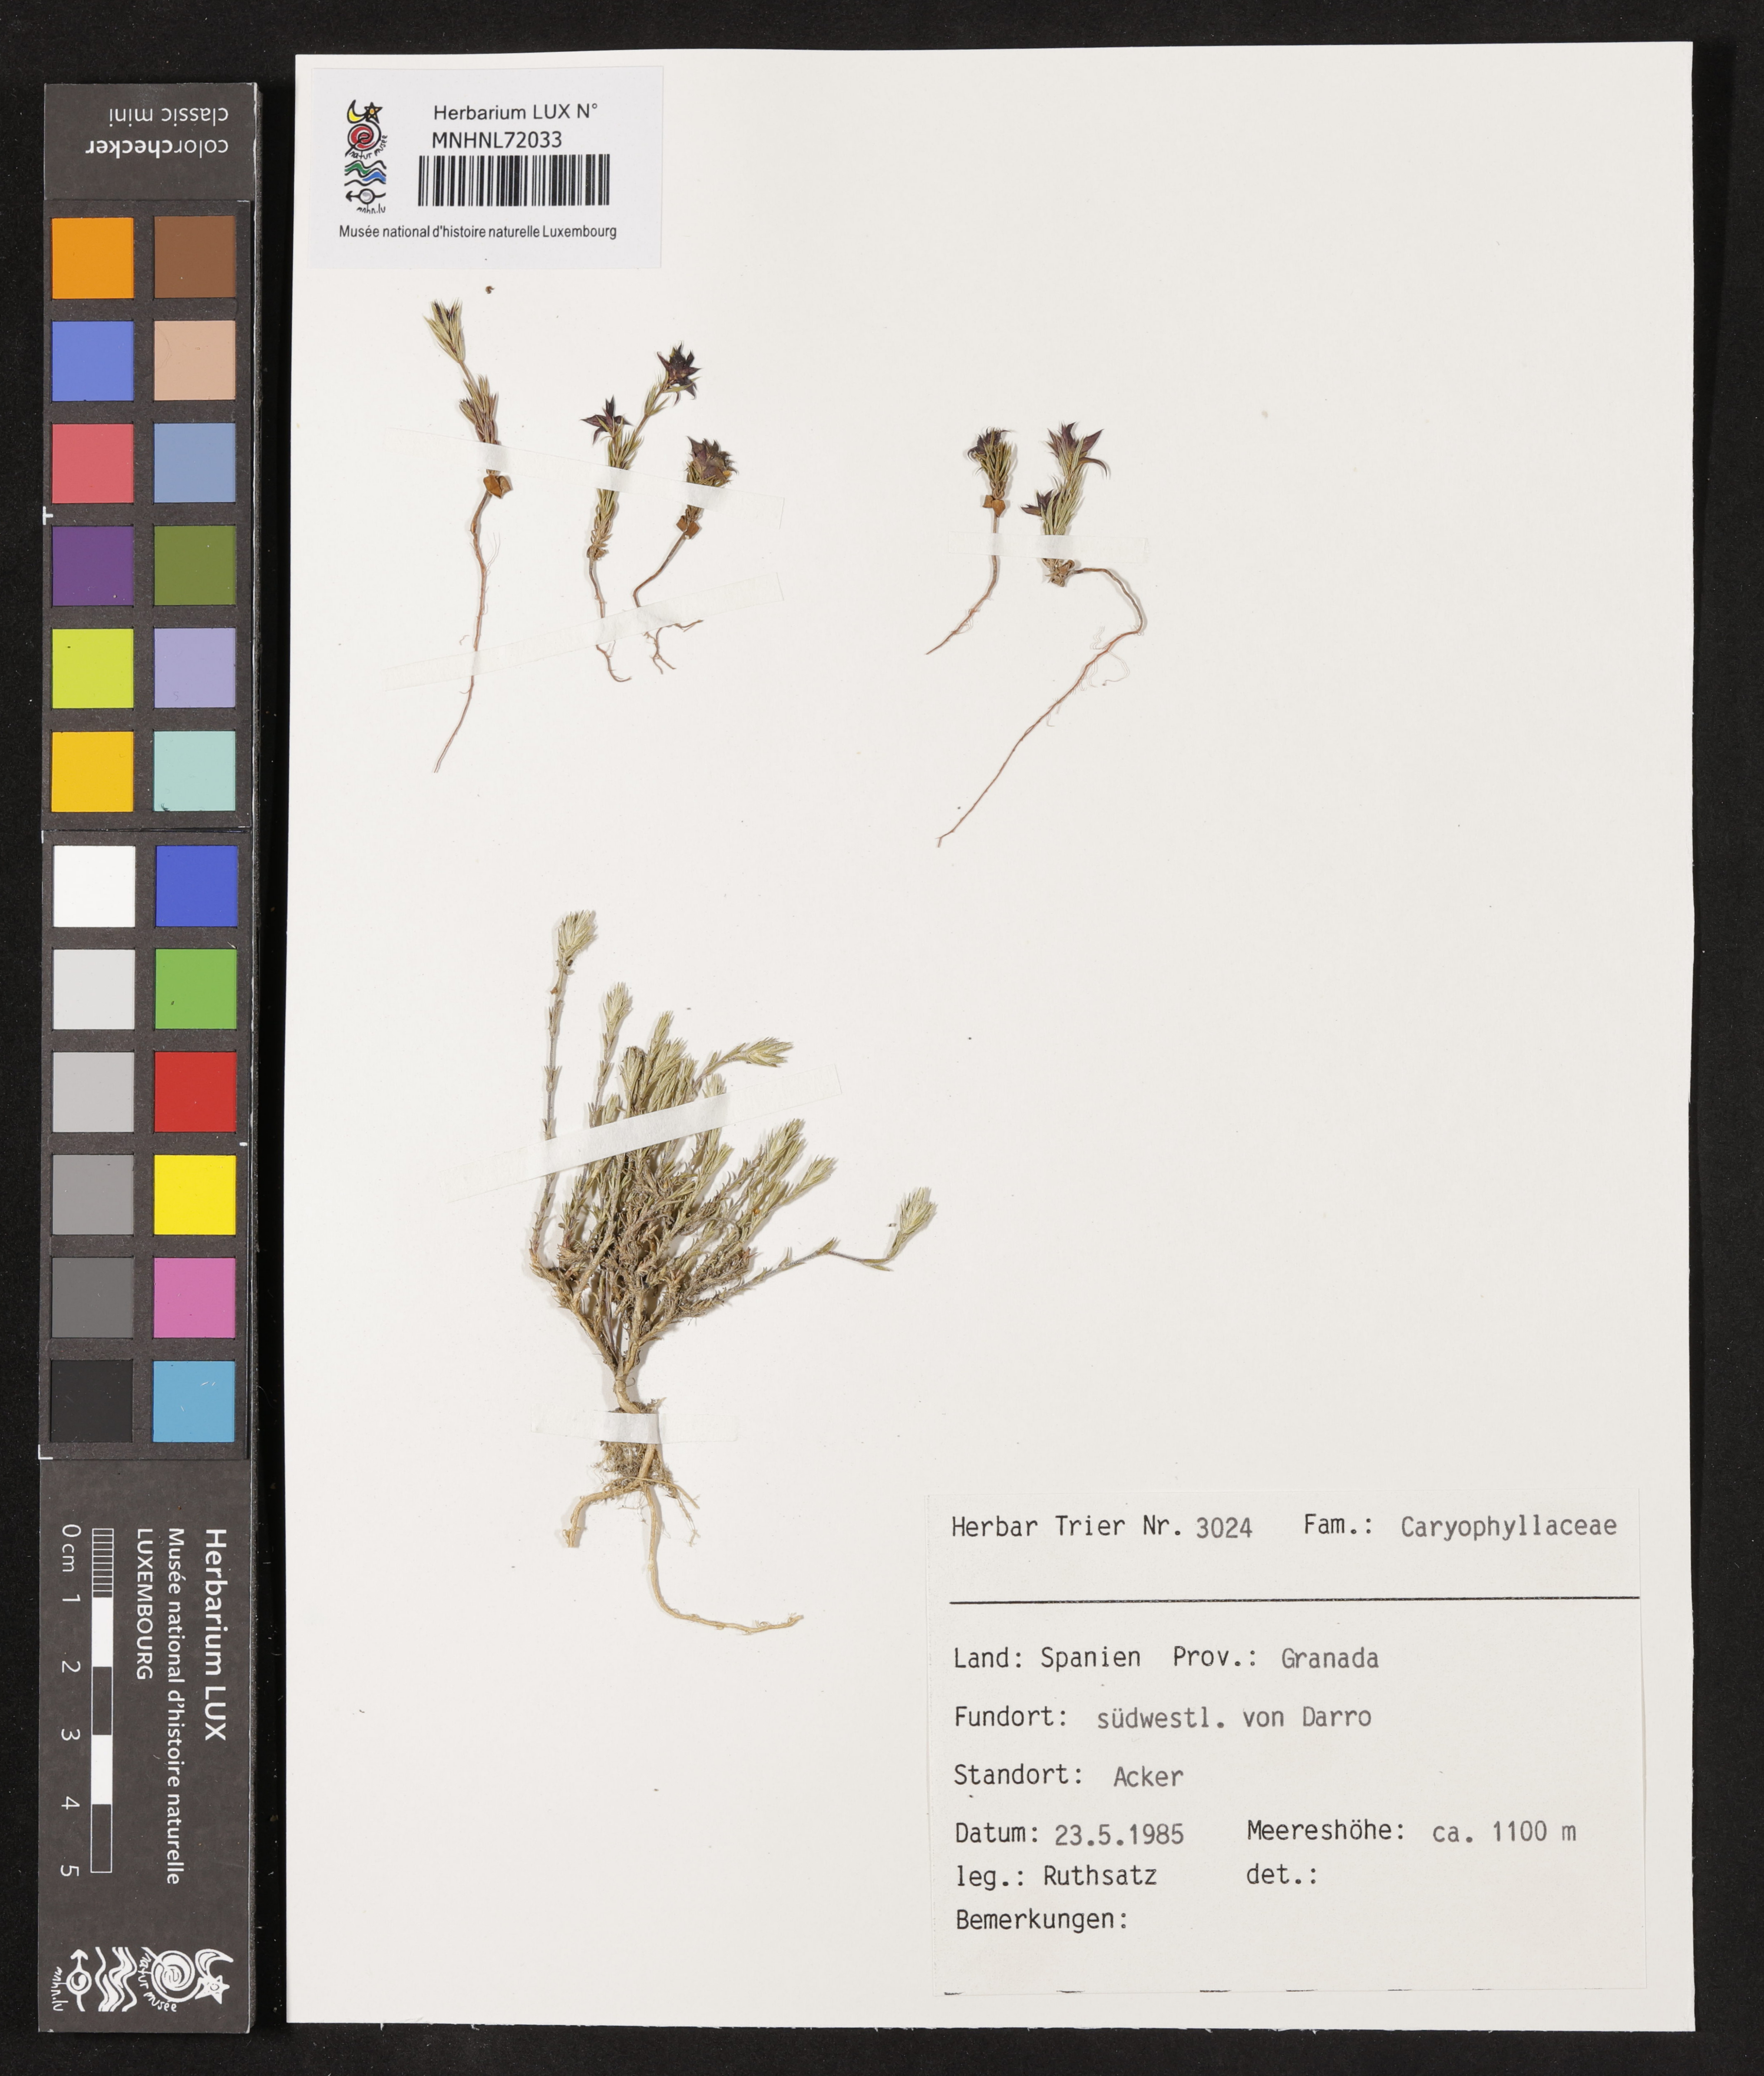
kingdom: Plantae
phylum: Tracheophyta
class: Magnoliopsida
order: Caryophyllales
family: Caryophyllaceae
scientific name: Caryophyllaceae
